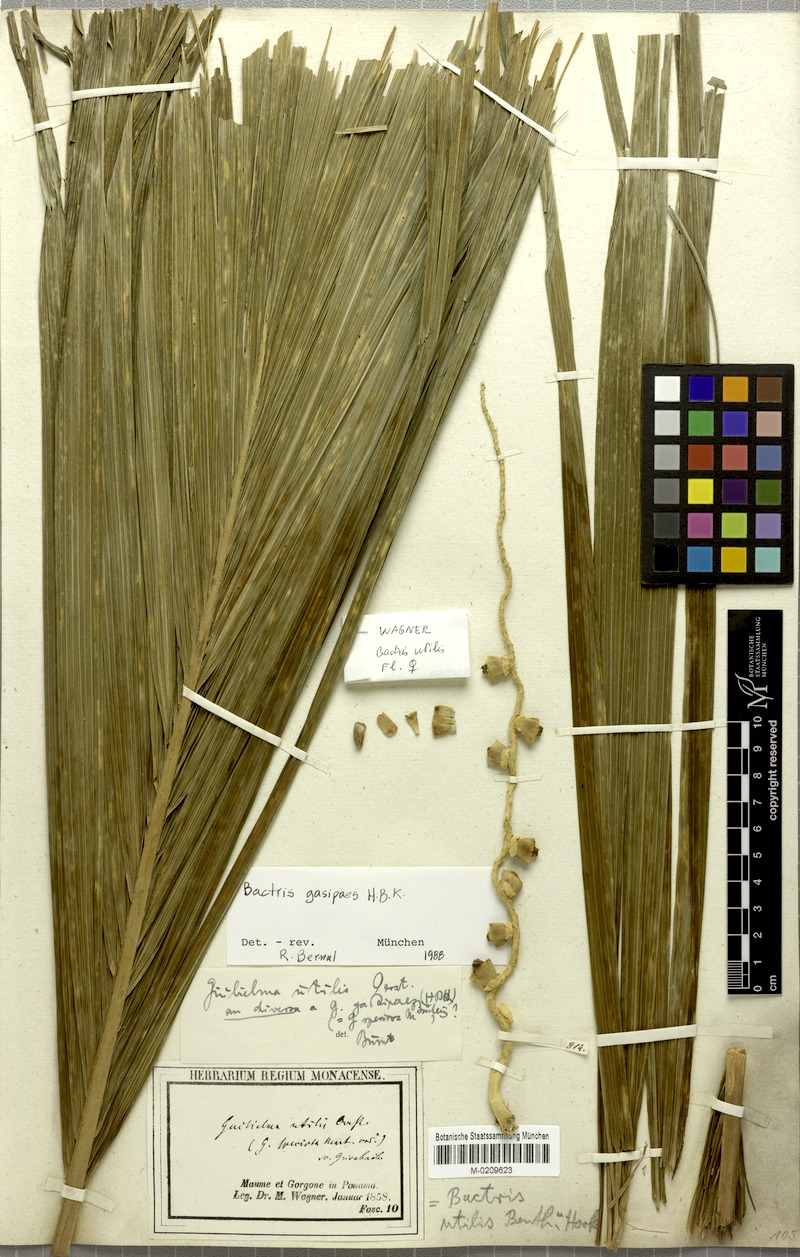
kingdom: Plantae
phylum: Tracheophyta
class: Liliopsida
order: Arecales
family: Arecaceae
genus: Bactris
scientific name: Bactris gasipaes
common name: Peach palm
